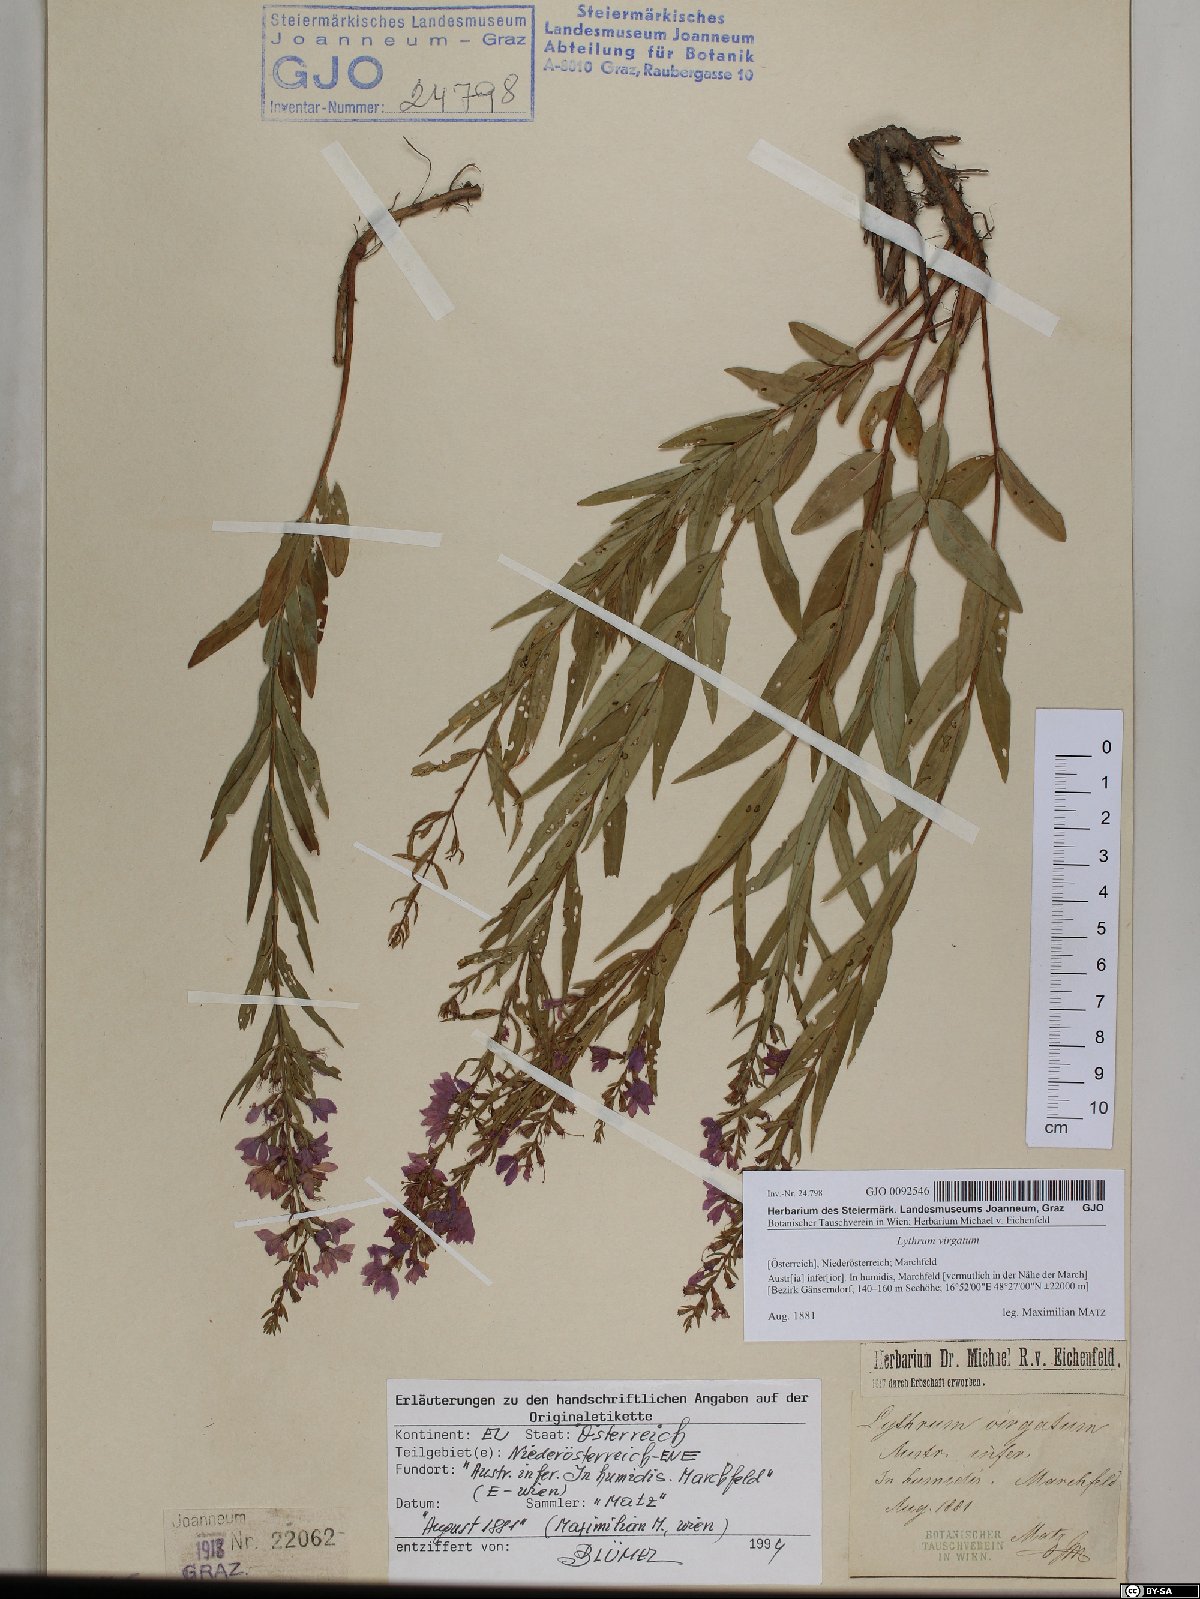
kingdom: Plantae
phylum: Tracheophyta
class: Magnoliopsida
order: Myrtales
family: Lythraceae
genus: Lythrum
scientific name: Lythrum virgatum
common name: European wand loosestrife
